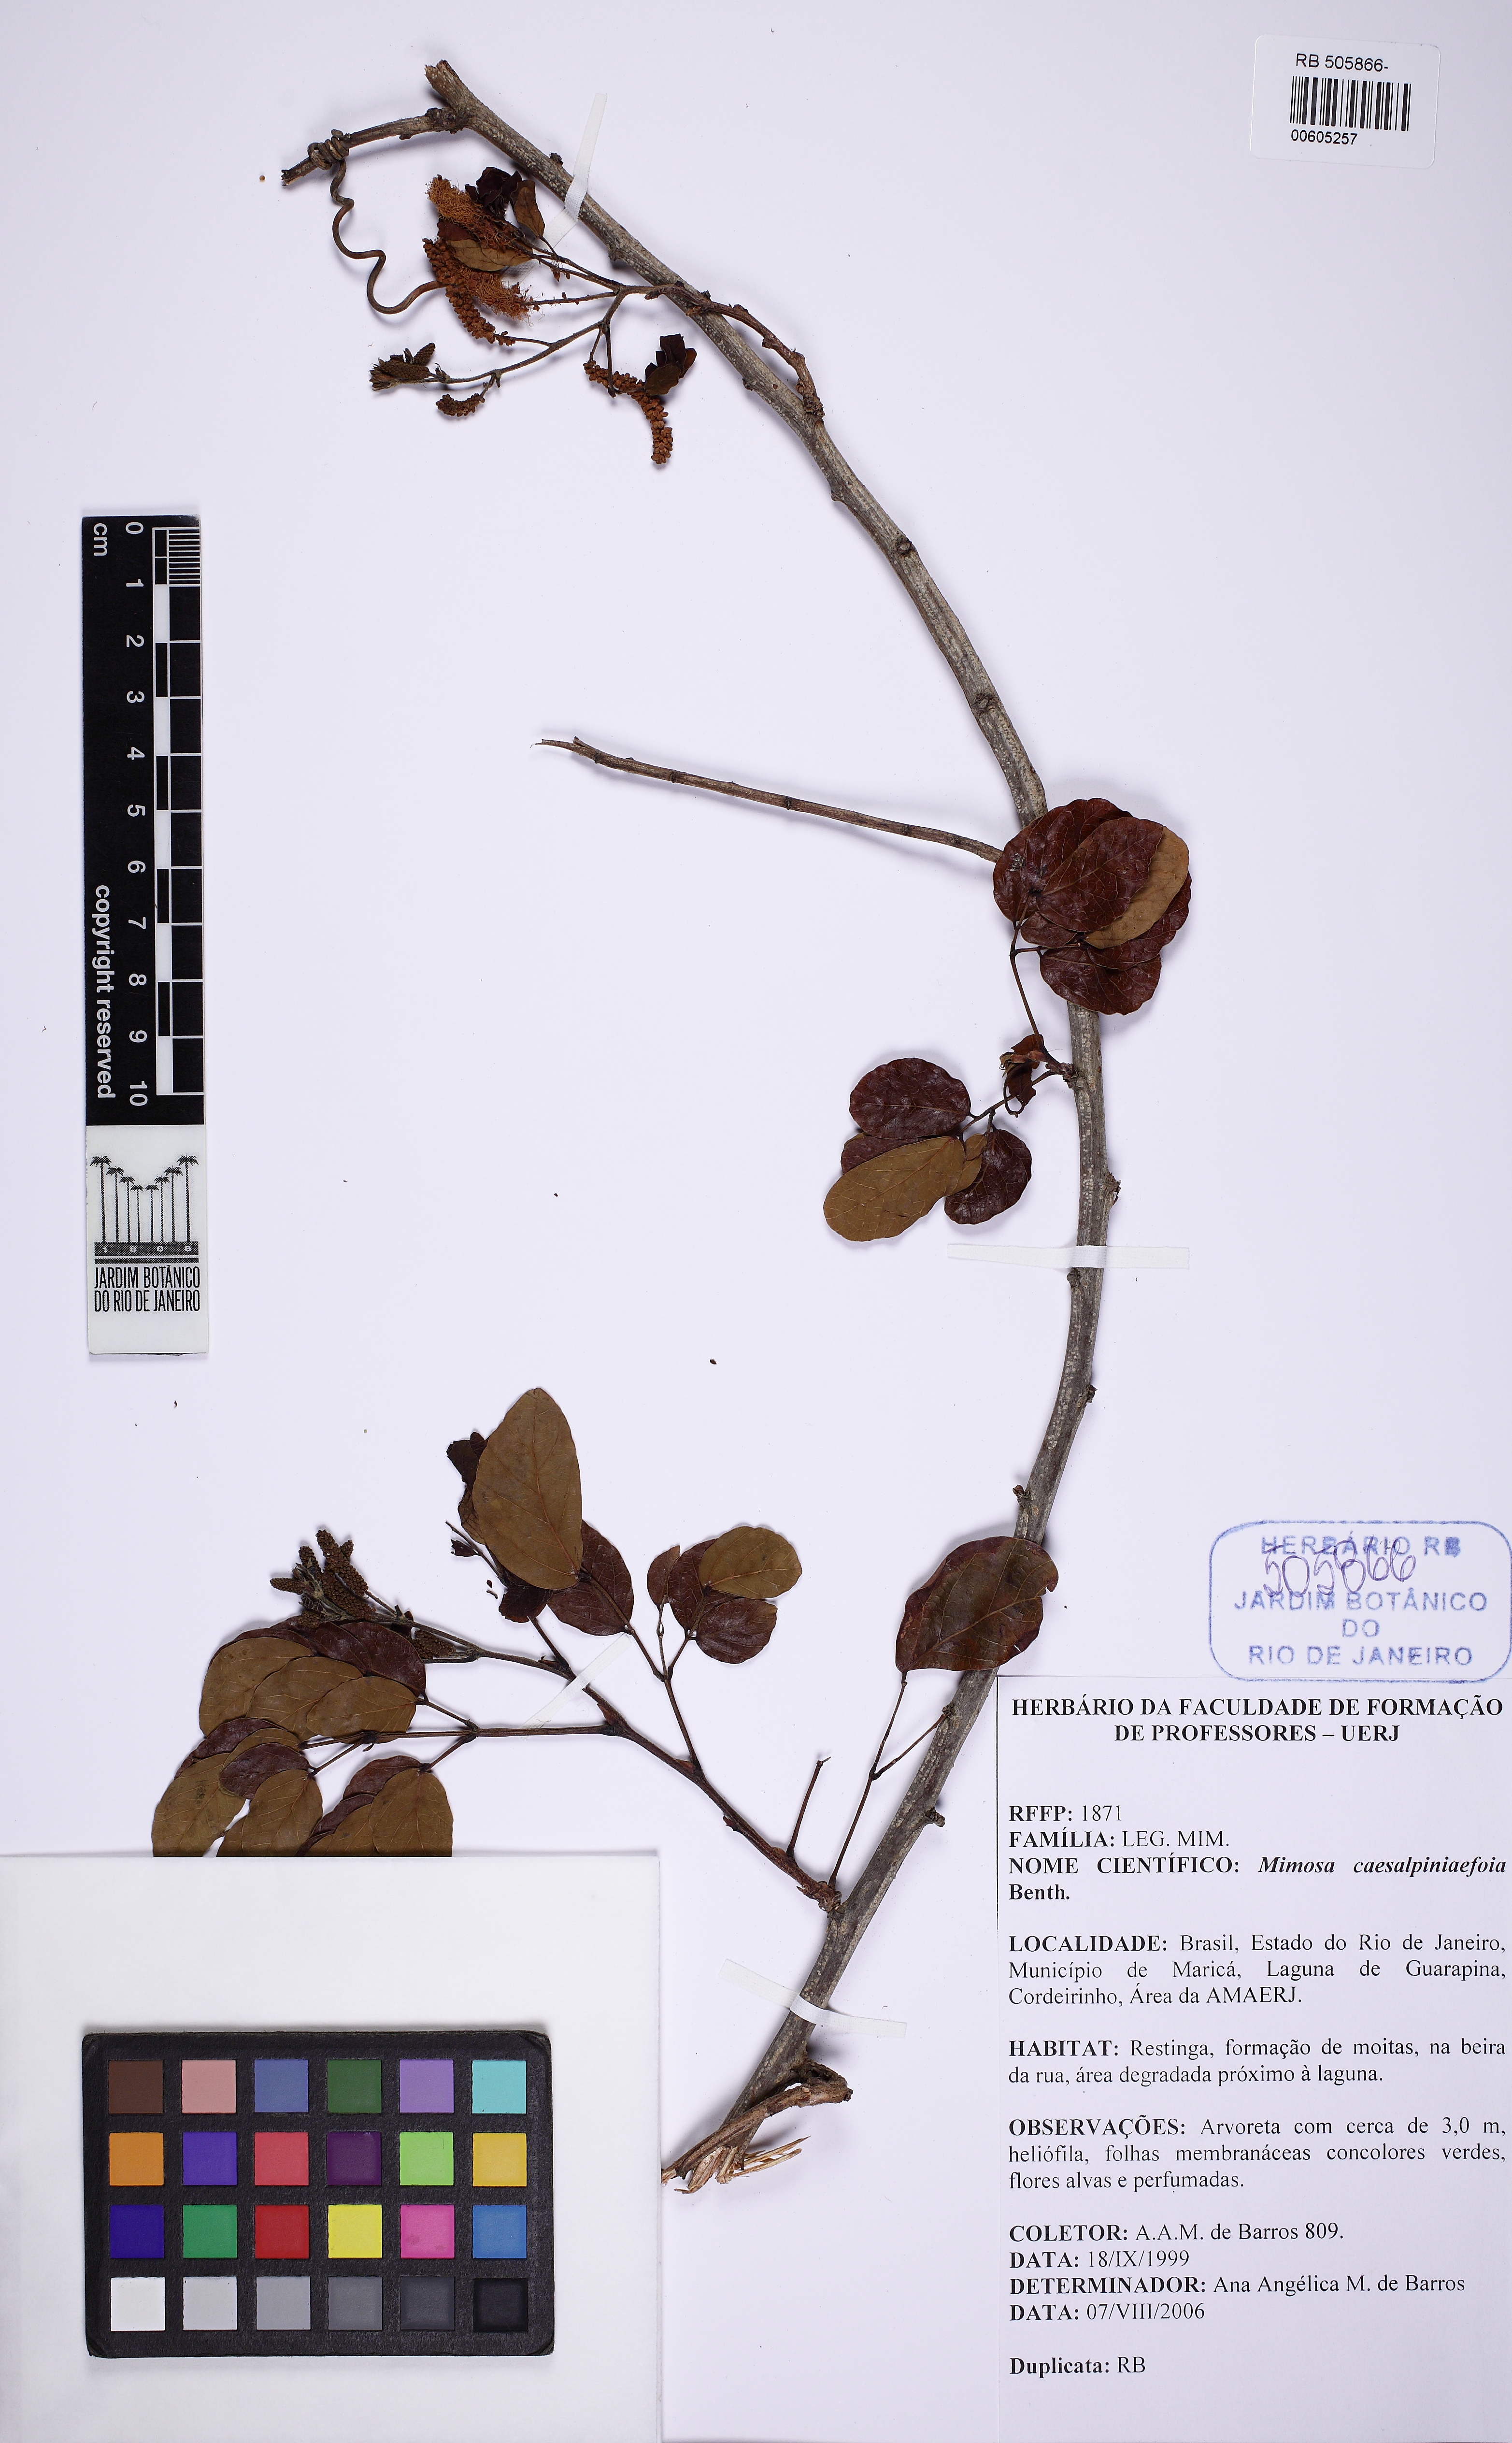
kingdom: Plantae
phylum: Tracheophyta
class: Magnoliopsida
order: Fabales
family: Fabaceae
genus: Mimosa
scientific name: Mimosa caesalpiniifolia
